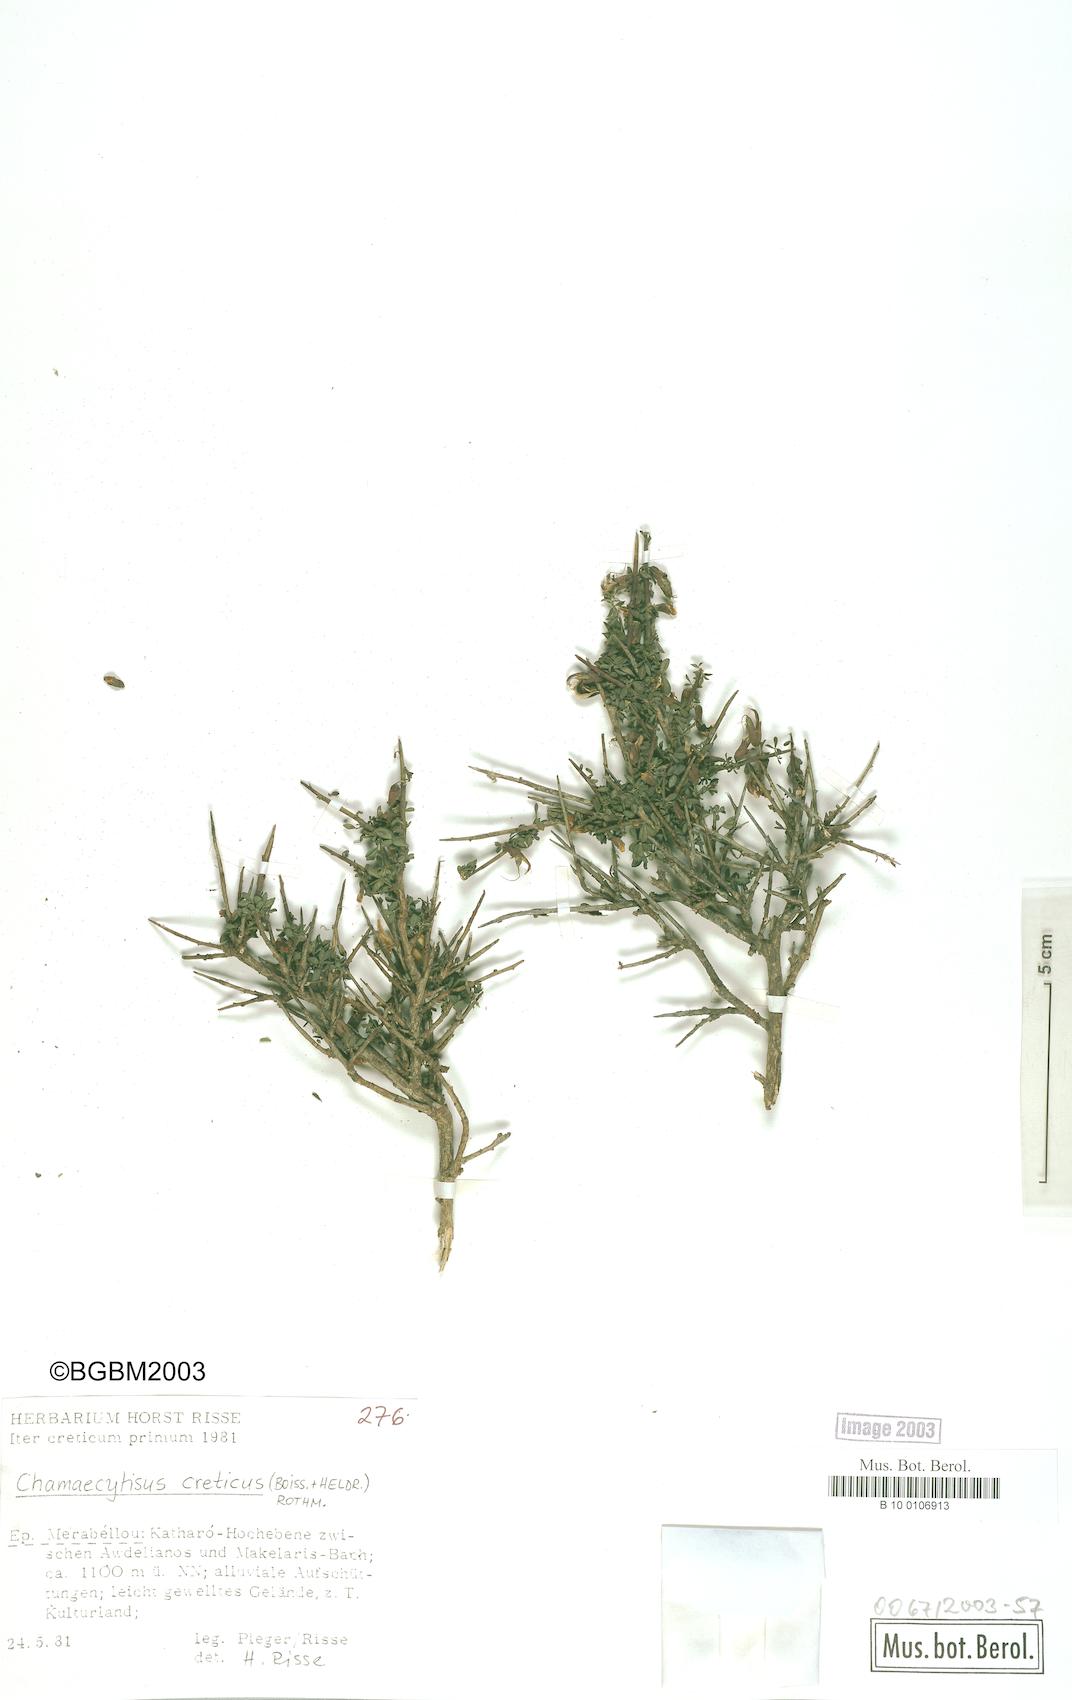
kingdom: Plantae
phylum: Tracheophyta
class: Magnoliopsida
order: Fabales
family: Fabaceae
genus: Chamaecytisus
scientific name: Chamaecytisus spinescens
